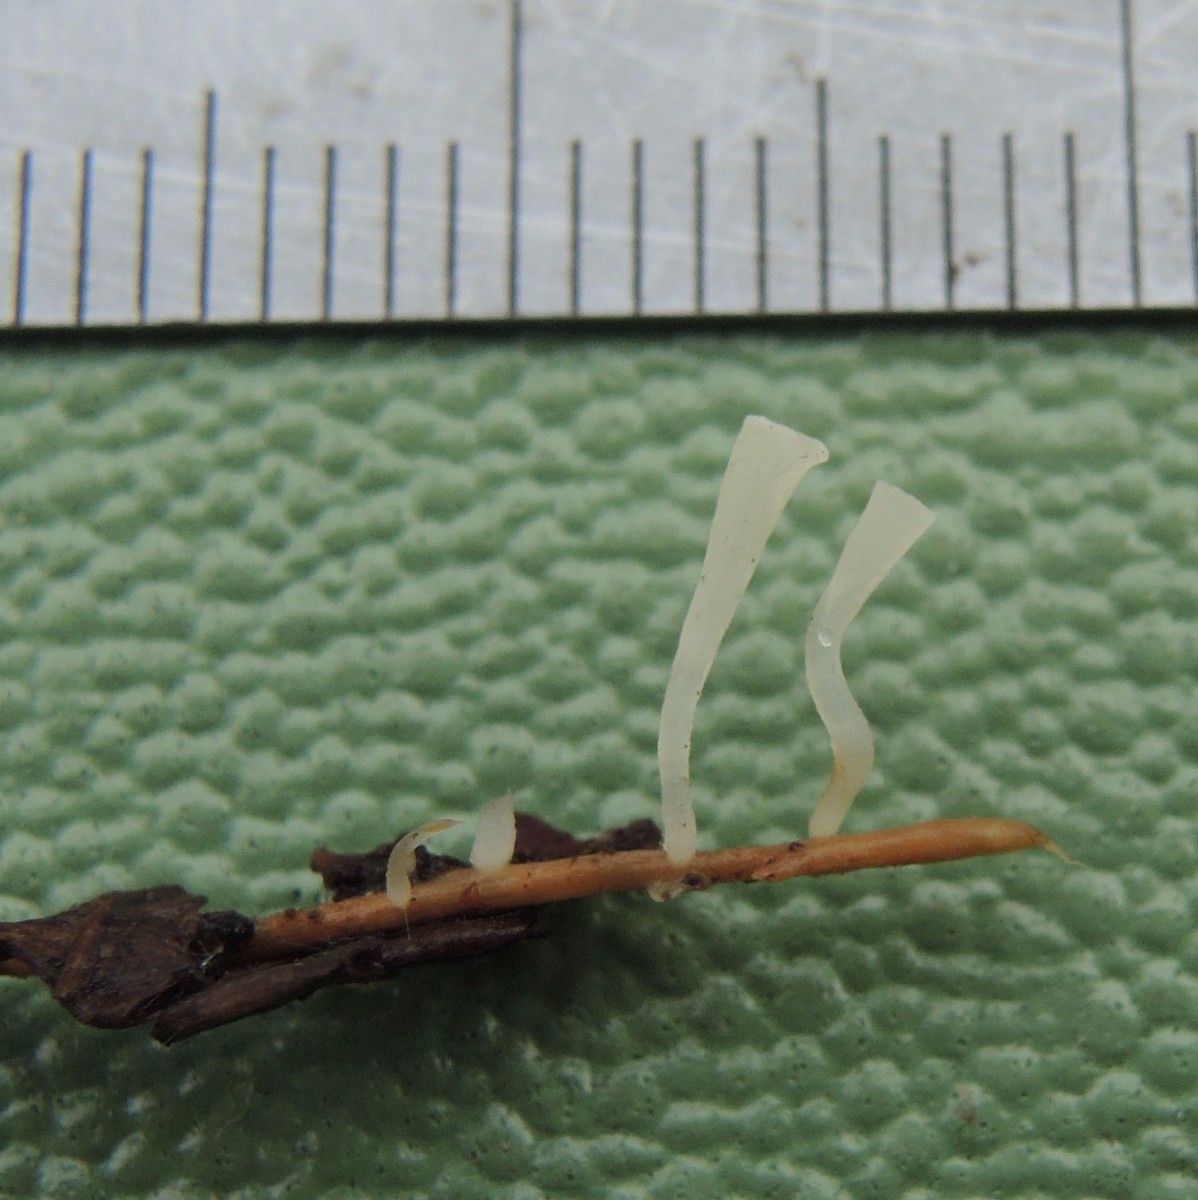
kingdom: Fungi
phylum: Basidiomycota
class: Agaricomycetes
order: Agaricales
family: Clavariaceae
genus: Clavicorona
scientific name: Clavicorona taxophila
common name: trompetkølle
